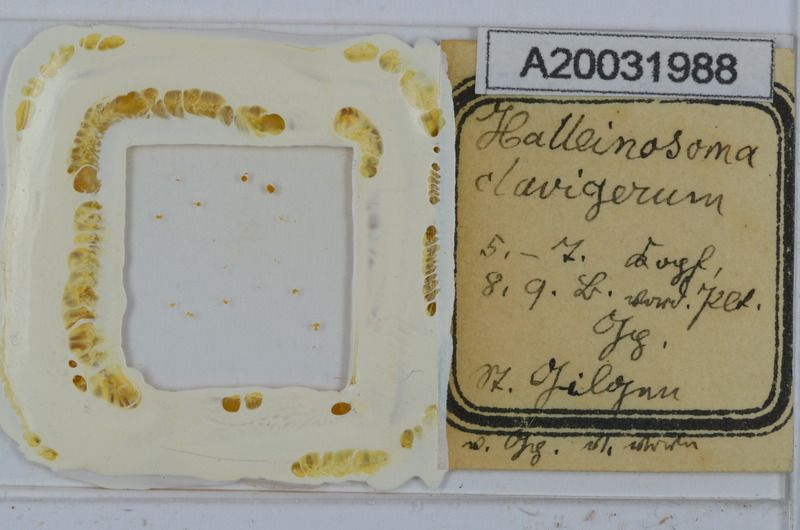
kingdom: Animalia
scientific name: Animalia
